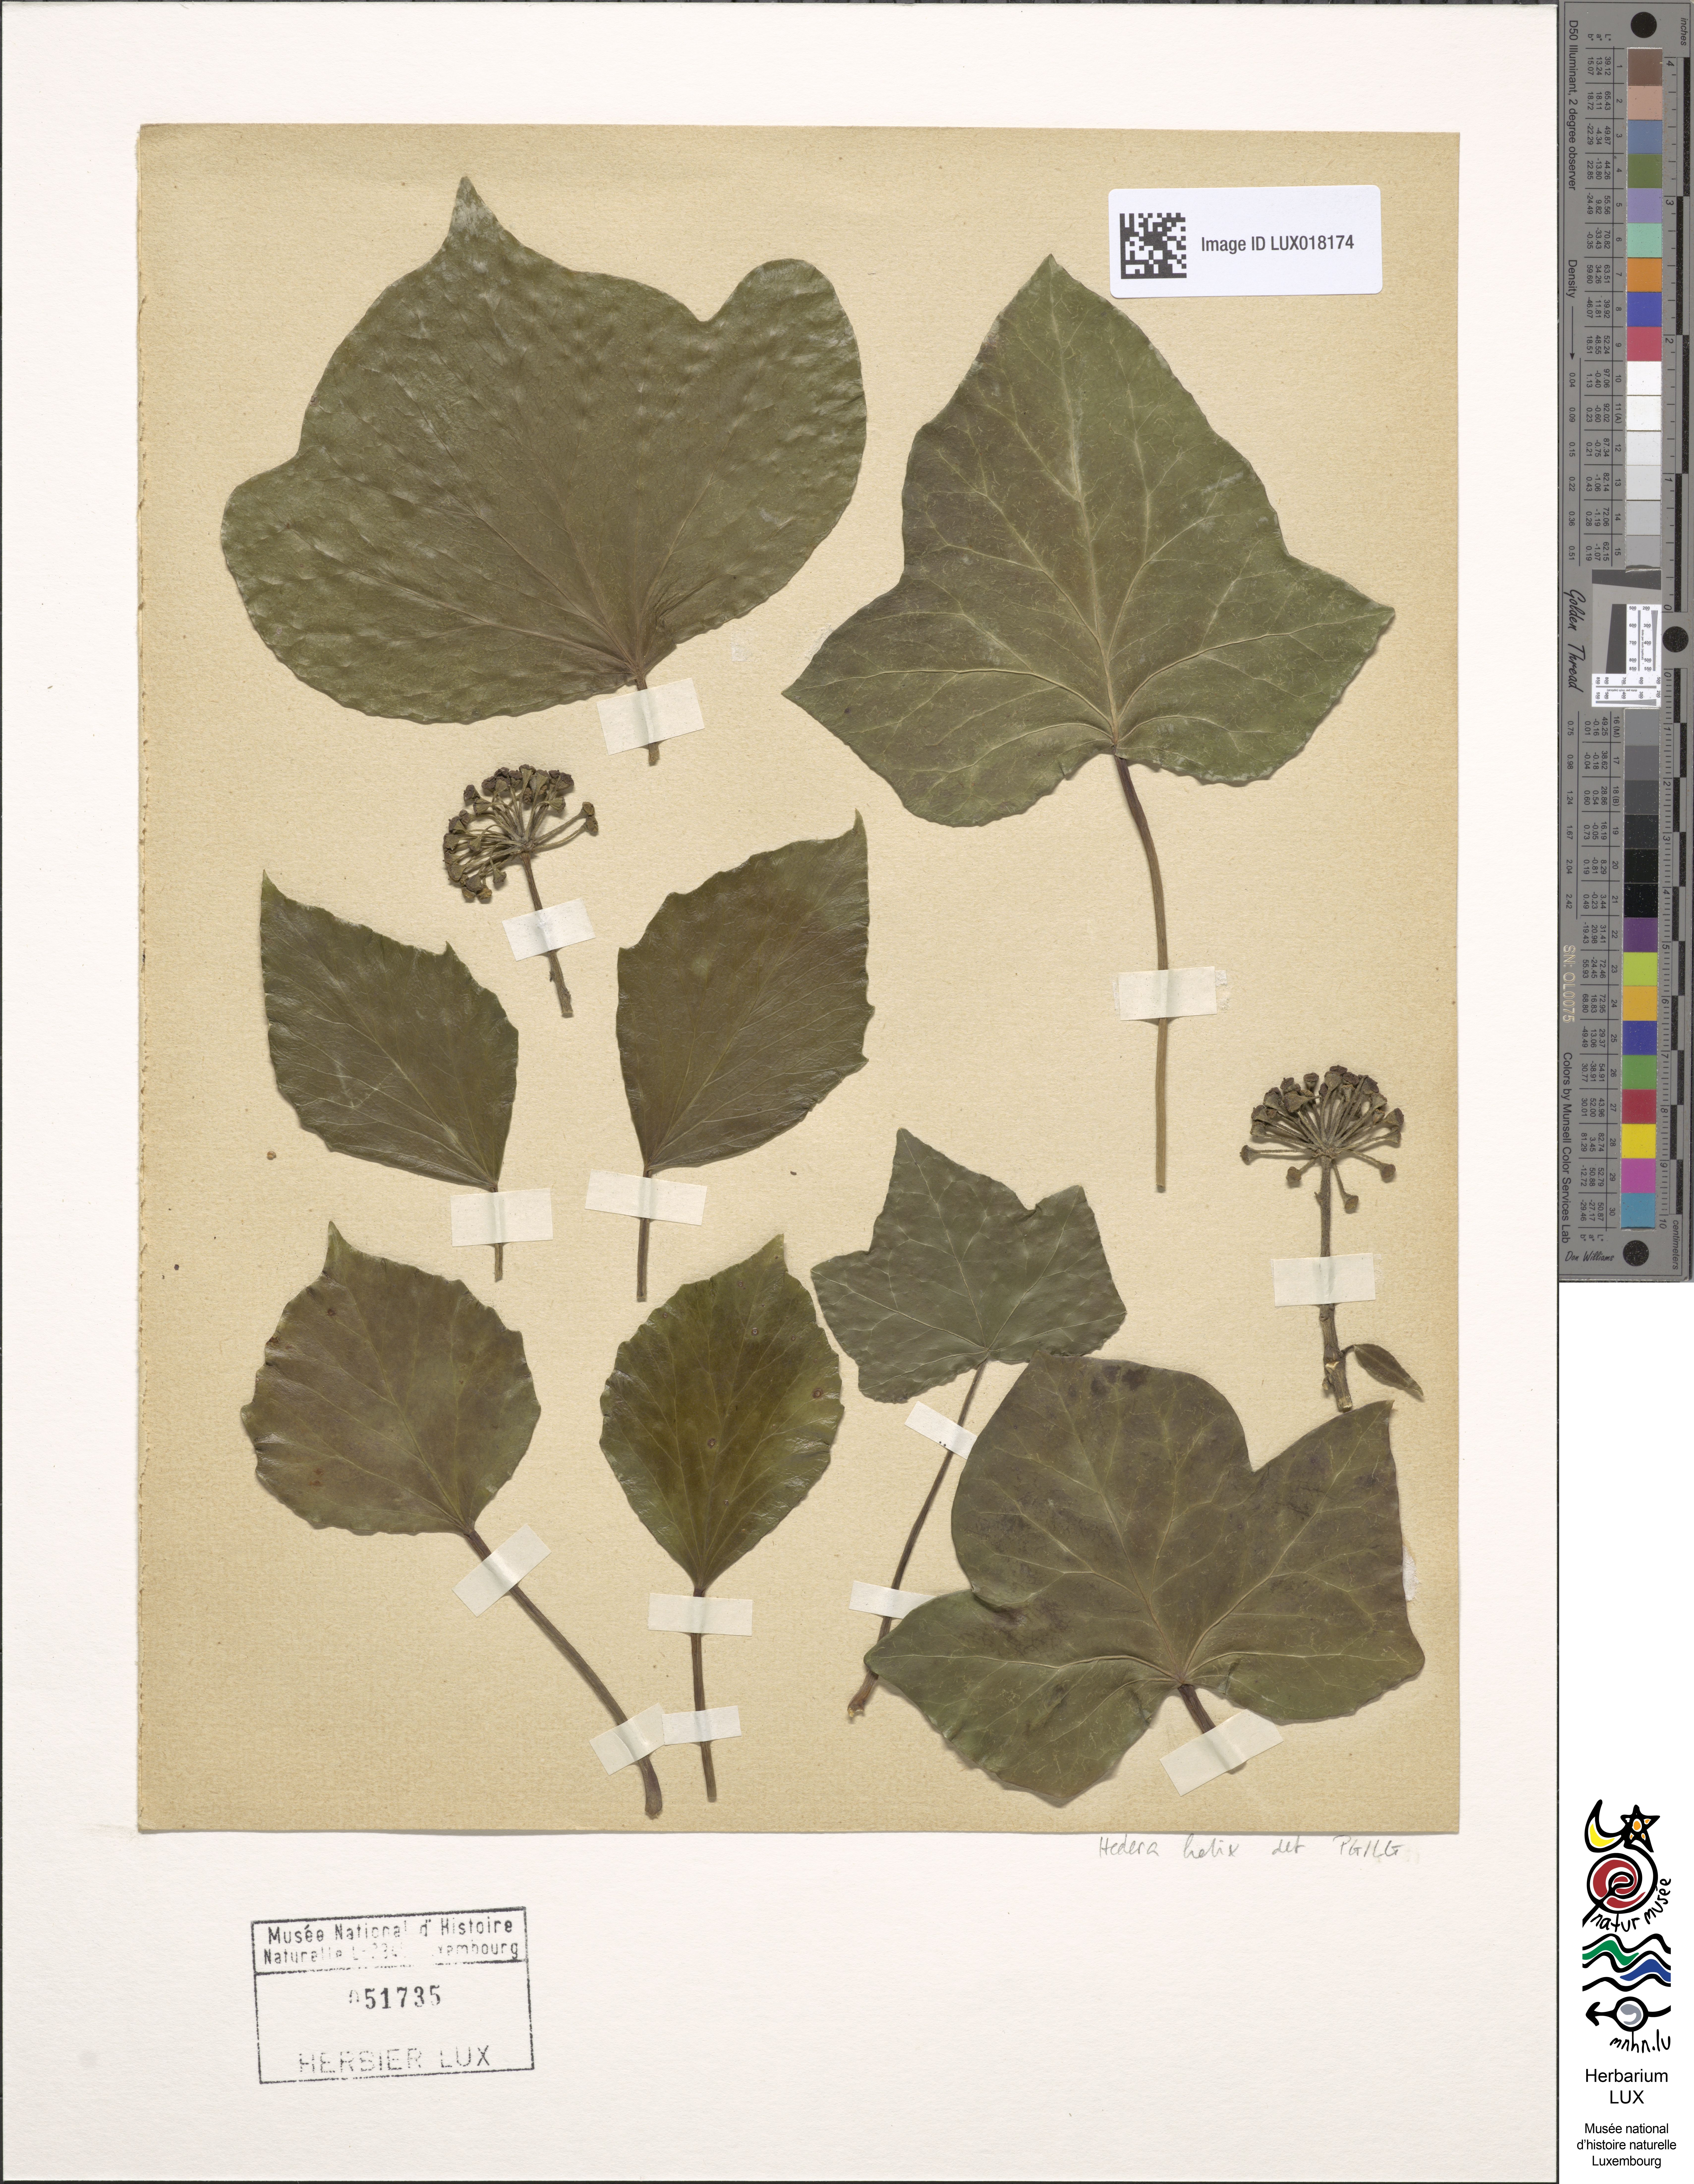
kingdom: Plantae
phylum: Tracheophyta
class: Magnoliopsida
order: Apiales
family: Araliaceae
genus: Hedera
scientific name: Hedera helix
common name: Ivy
